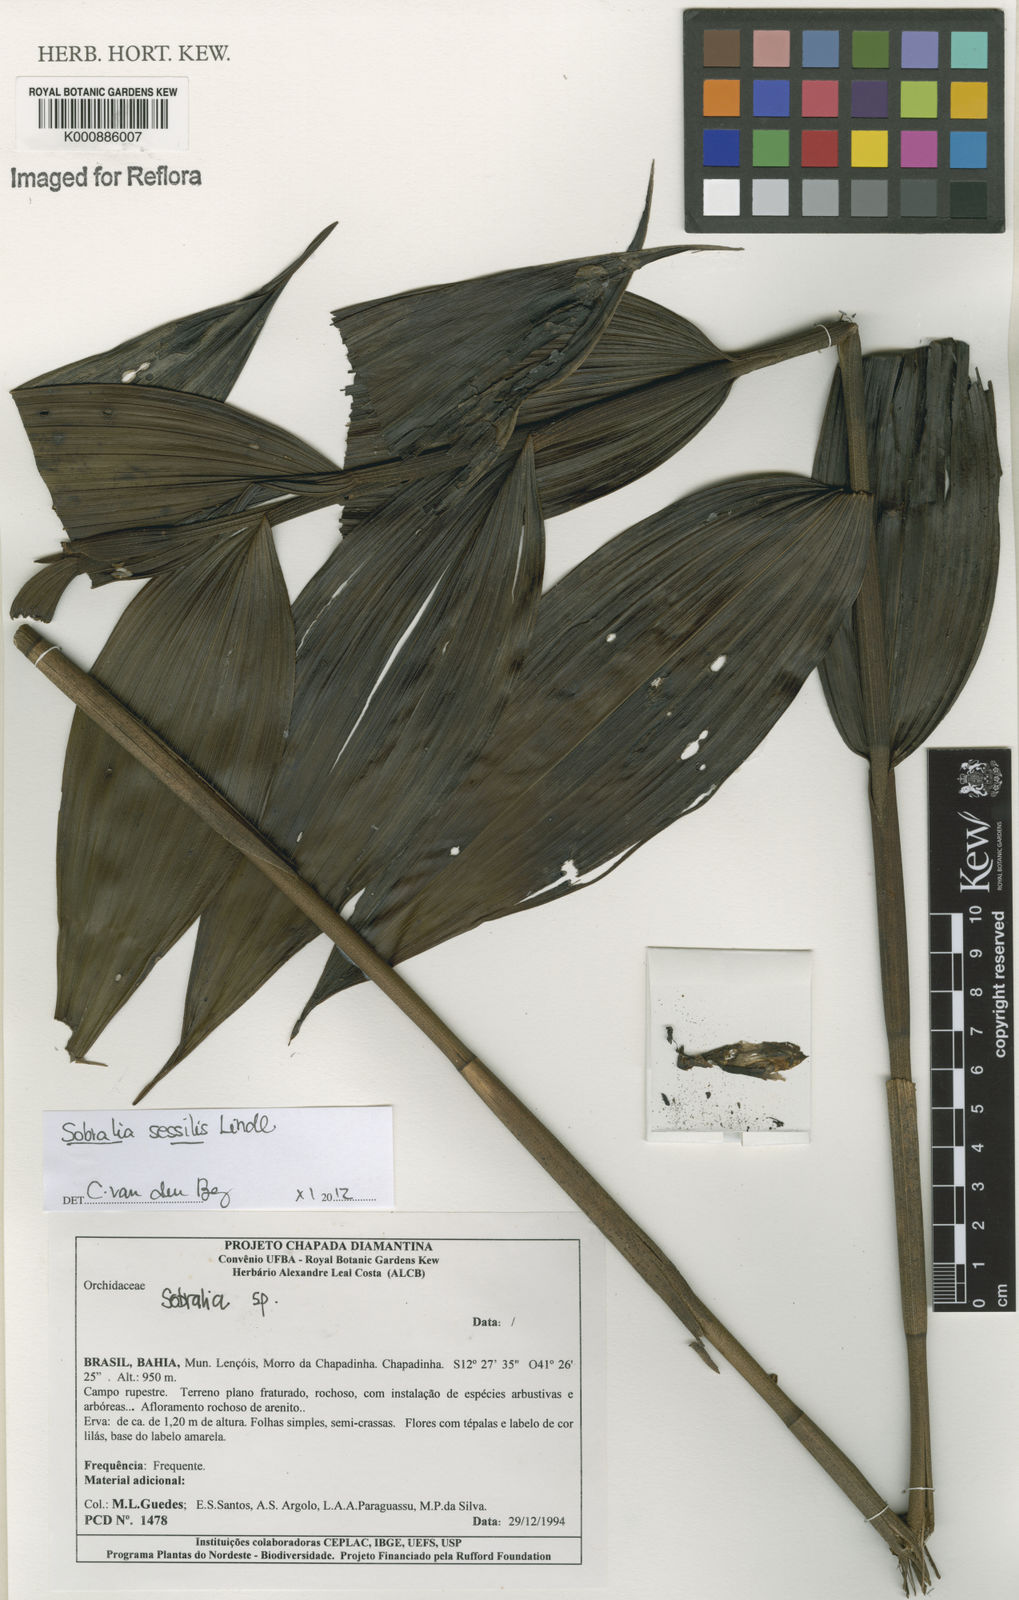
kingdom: Plantae
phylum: Tracheophyta
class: Liliopsida
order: Asparagales
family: Orchidaceae
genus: Sobralia
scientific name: Sobralia sessilis
